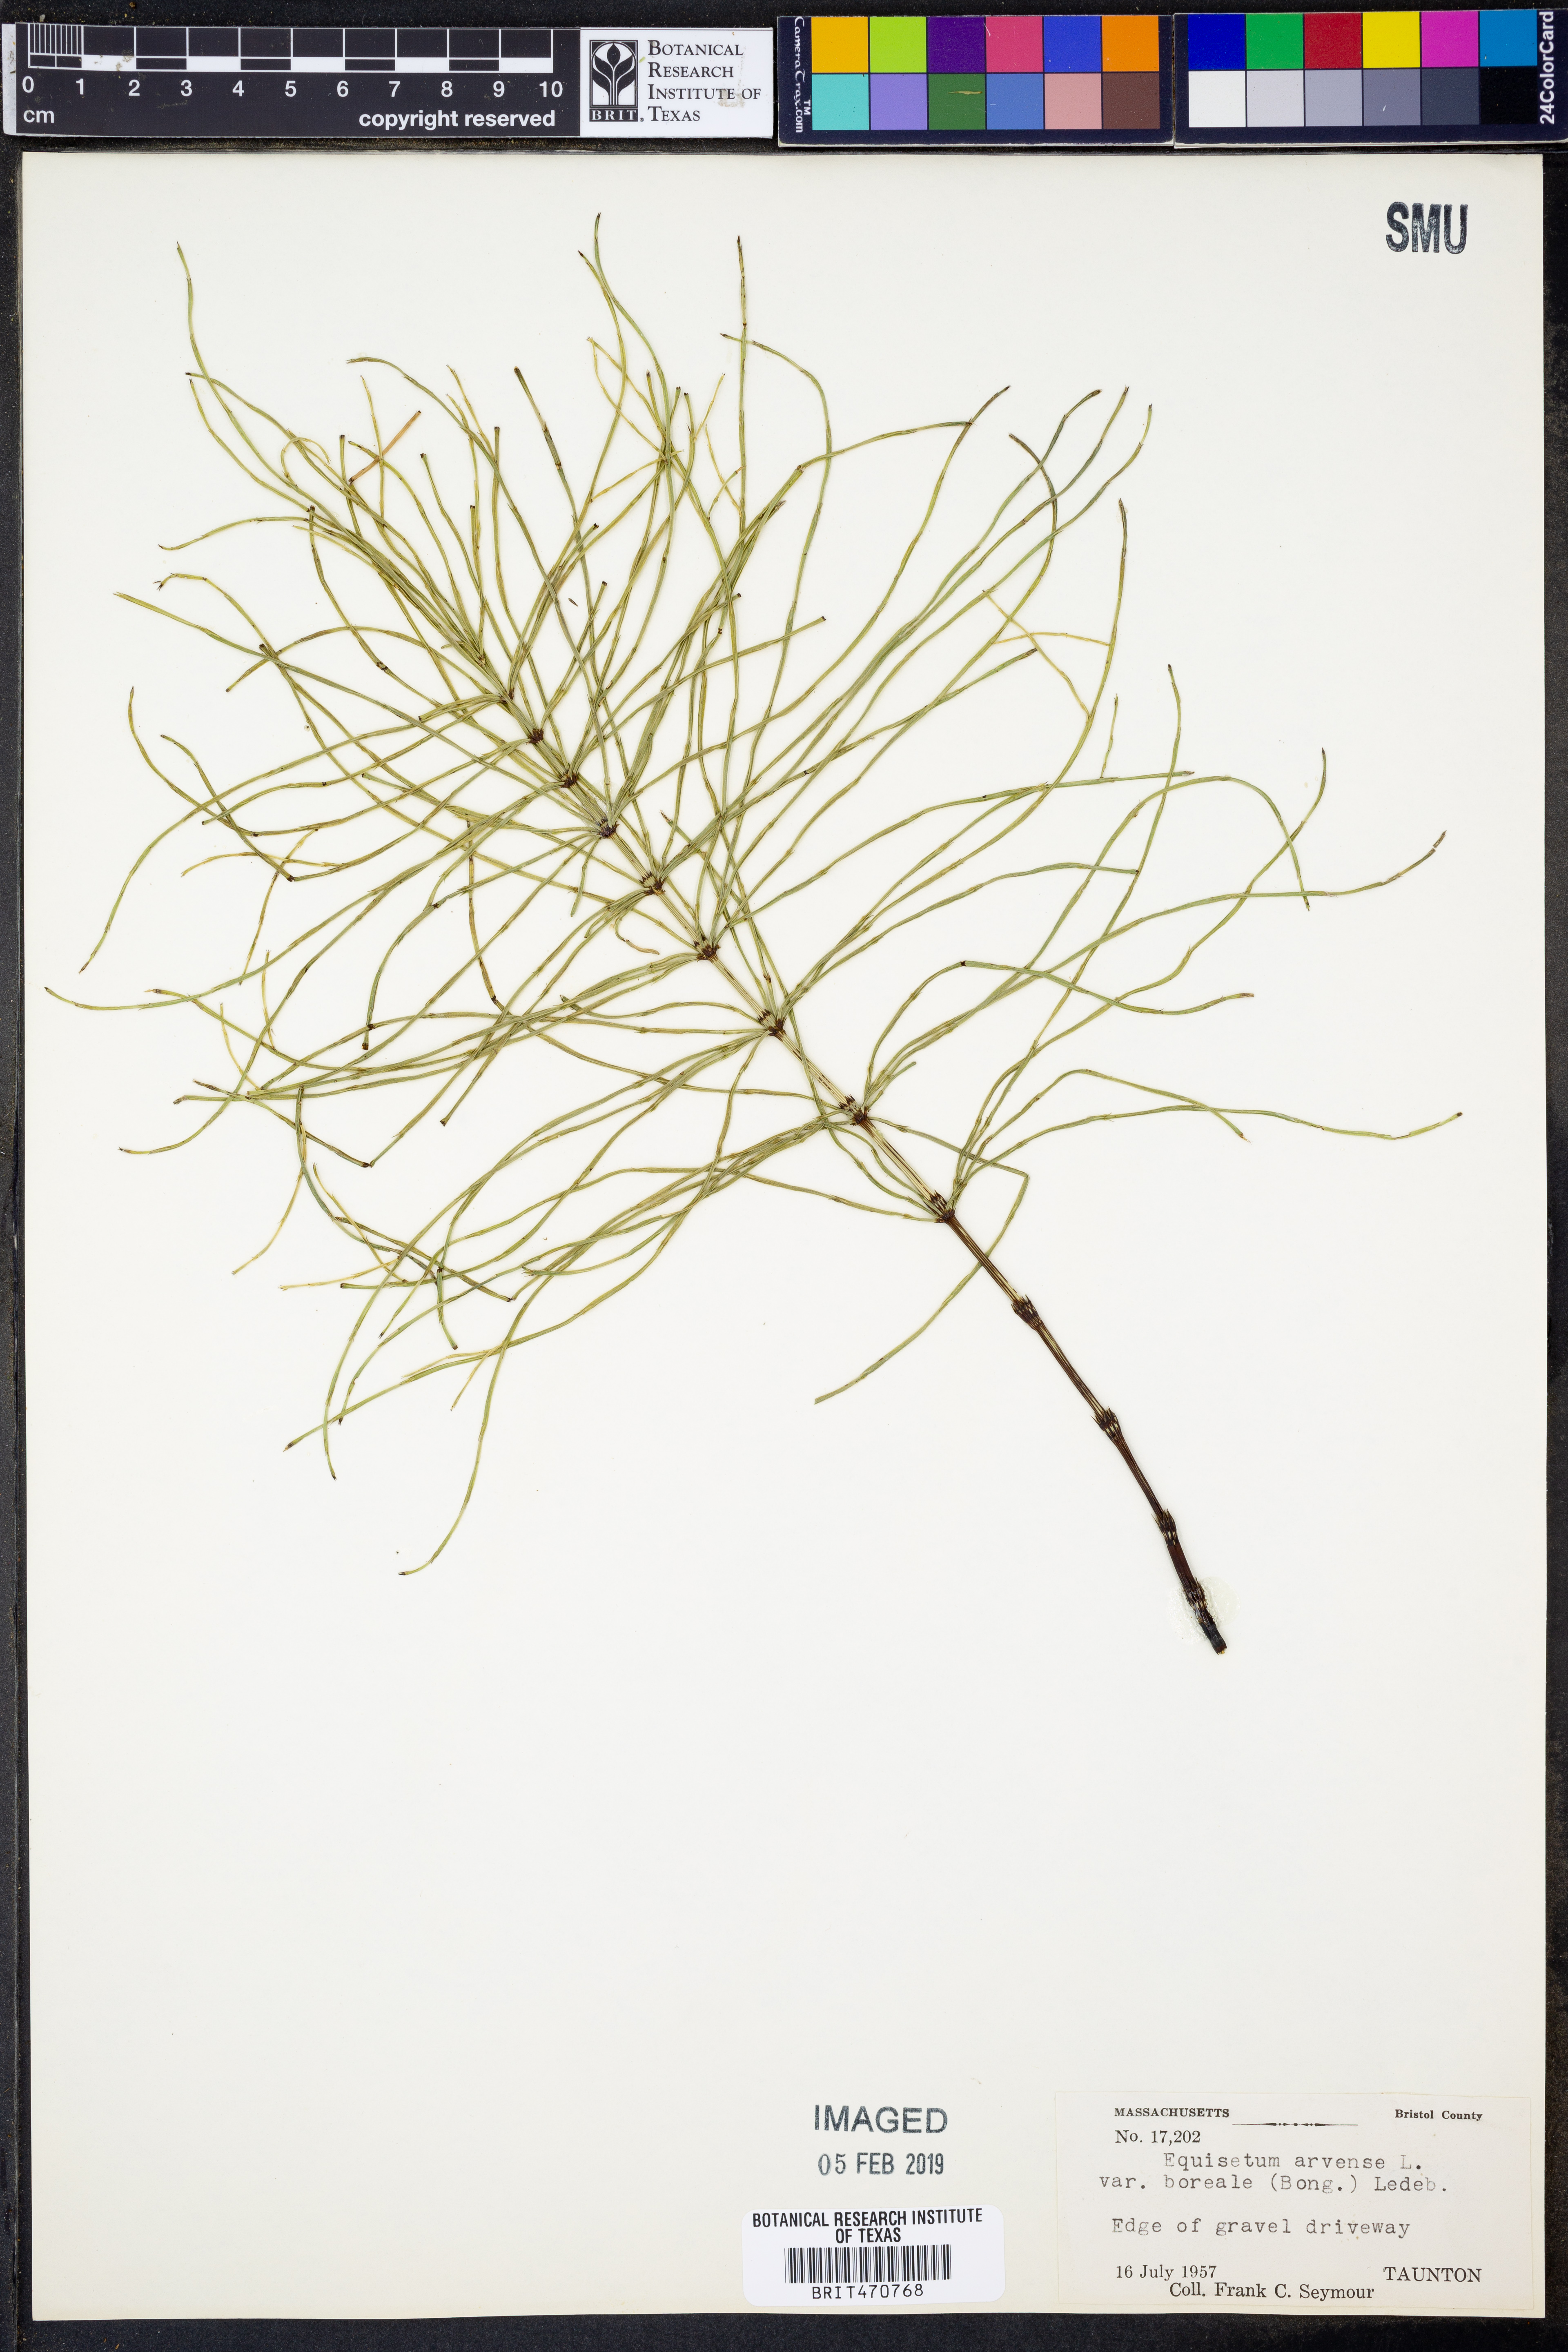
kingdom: Plantae
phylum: Tracheophyta
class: Polypodiopsida
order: Equisetales
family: Equisetaceae
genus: Equisetum
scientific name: Equisetum arvense
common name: Field horsetail
